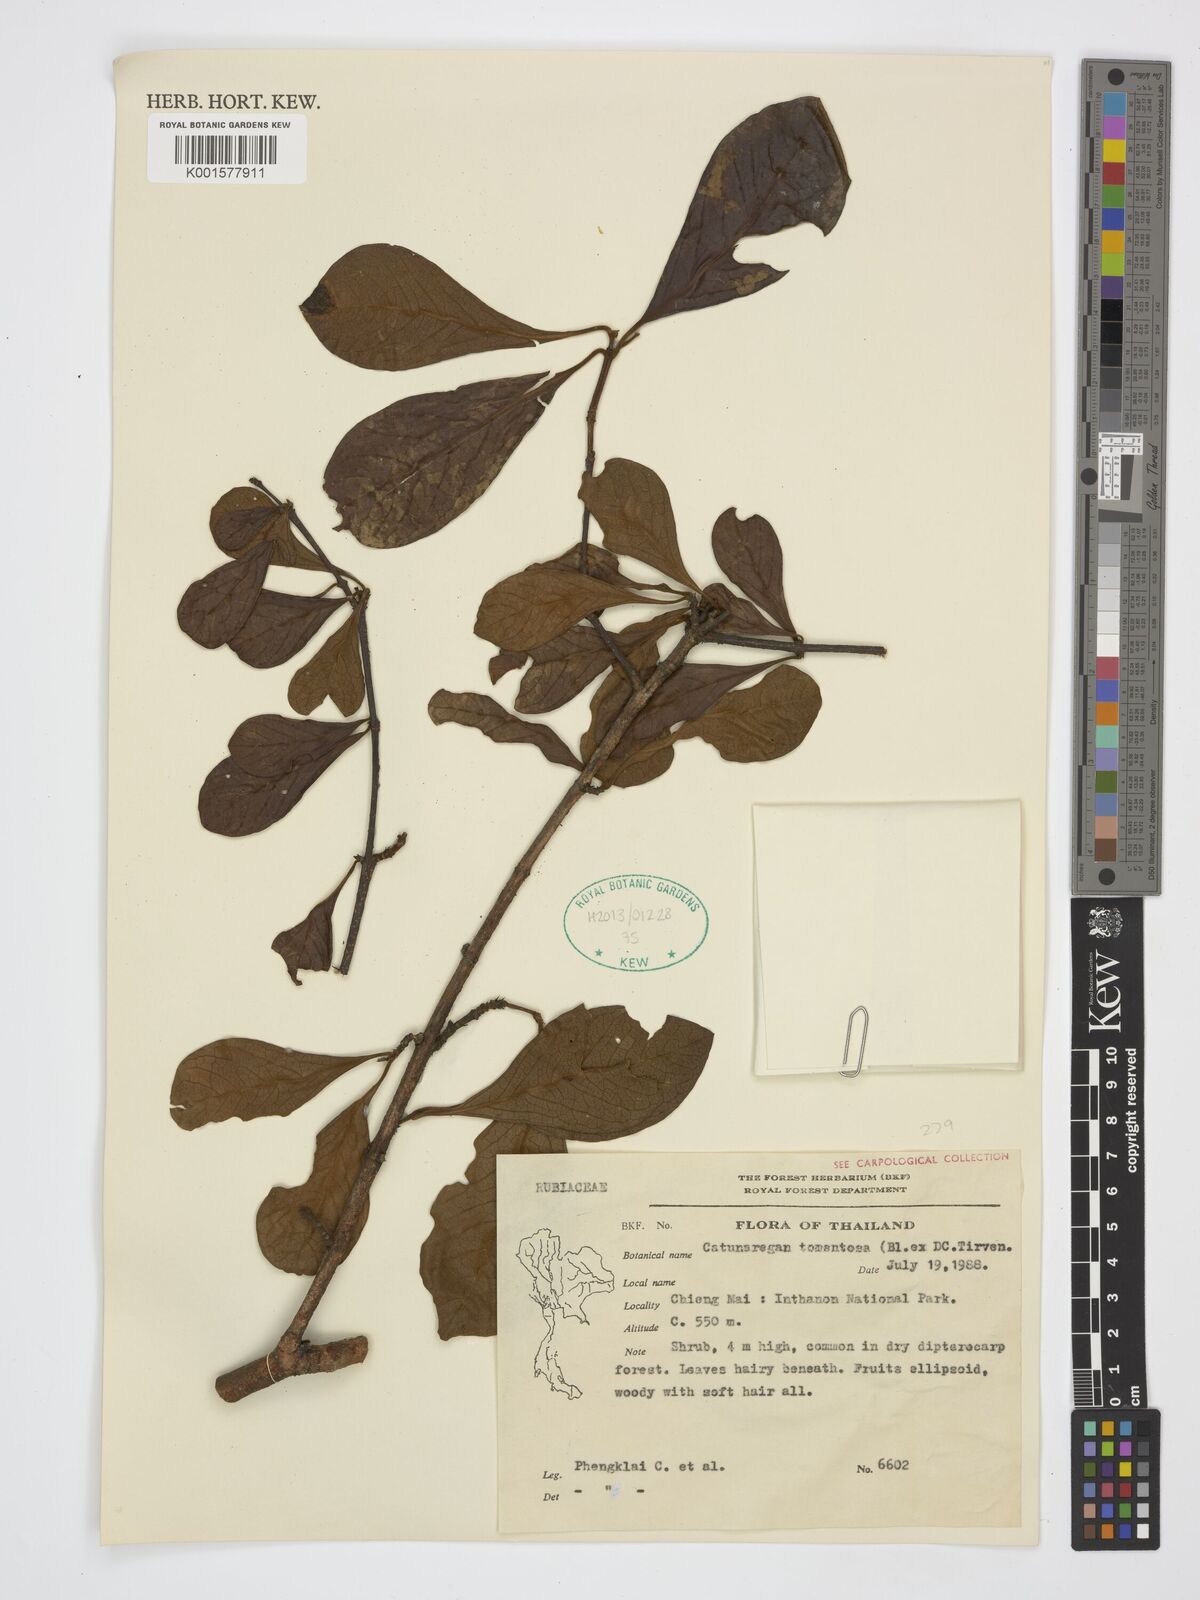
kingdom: Plantae
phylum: Tracheophyta
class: Magnoliopsida
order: Gentianales
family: Rubiaceae
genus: Catunaregam
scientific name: Catunaregam tomentosa
